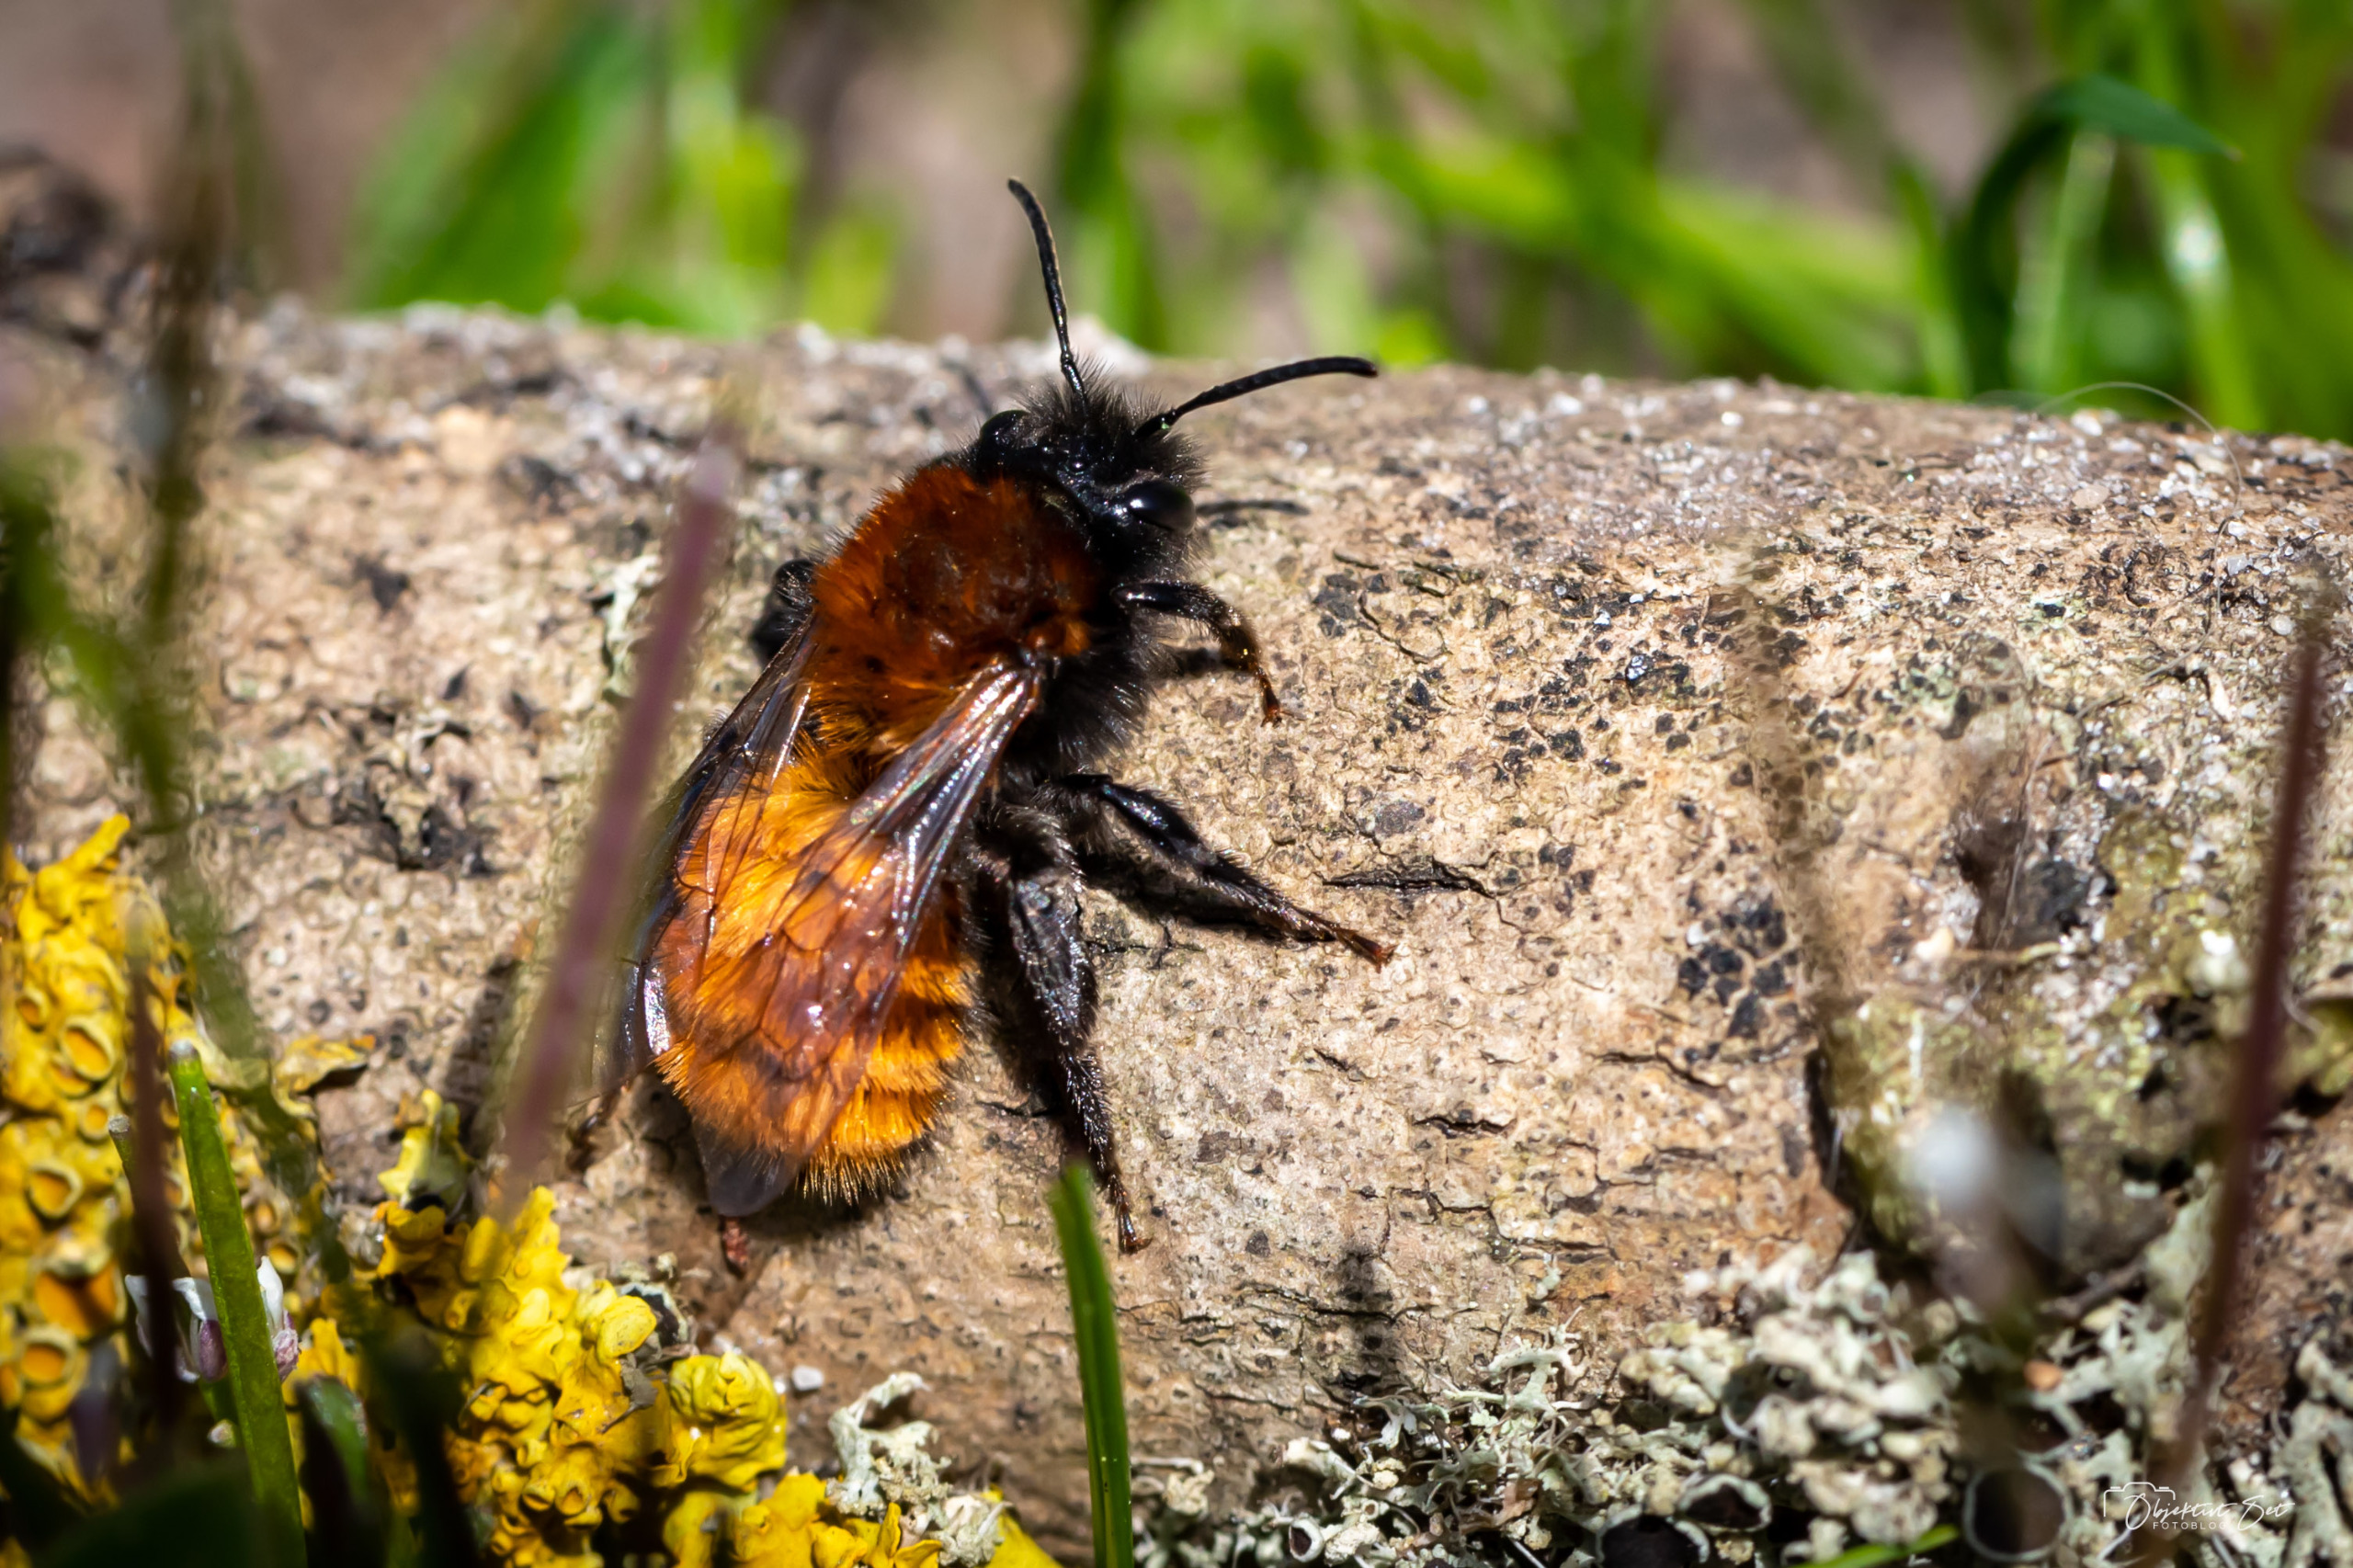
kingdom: Animalia
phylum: Arthropoda
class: Insecta
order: Hymenoptera
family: Andrenidae
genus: Andrena
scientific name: Andrena fulva
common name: Rødpelset jordbi
